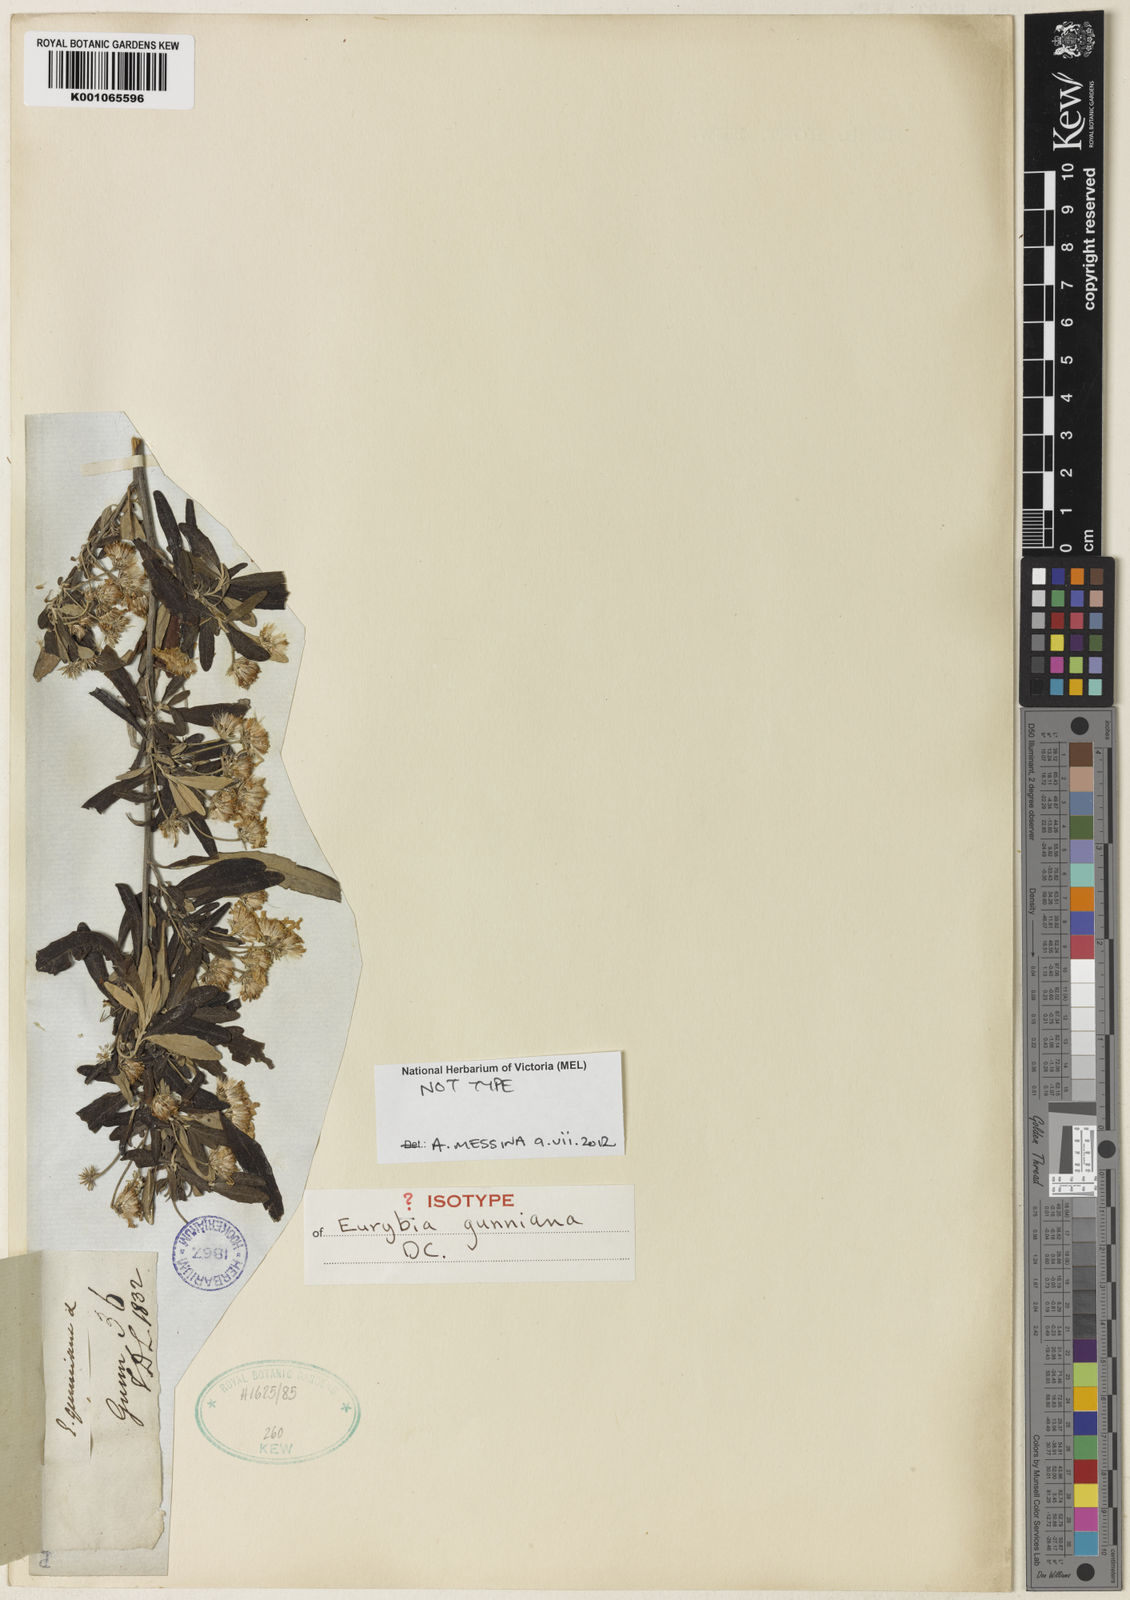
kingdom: Plantae
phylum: Tracheophyta
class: Magnoliopsida
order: Asterales
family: Asteraceae
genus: Olearia
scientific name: Olearia phlogopappa
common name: Alpine daisybush
